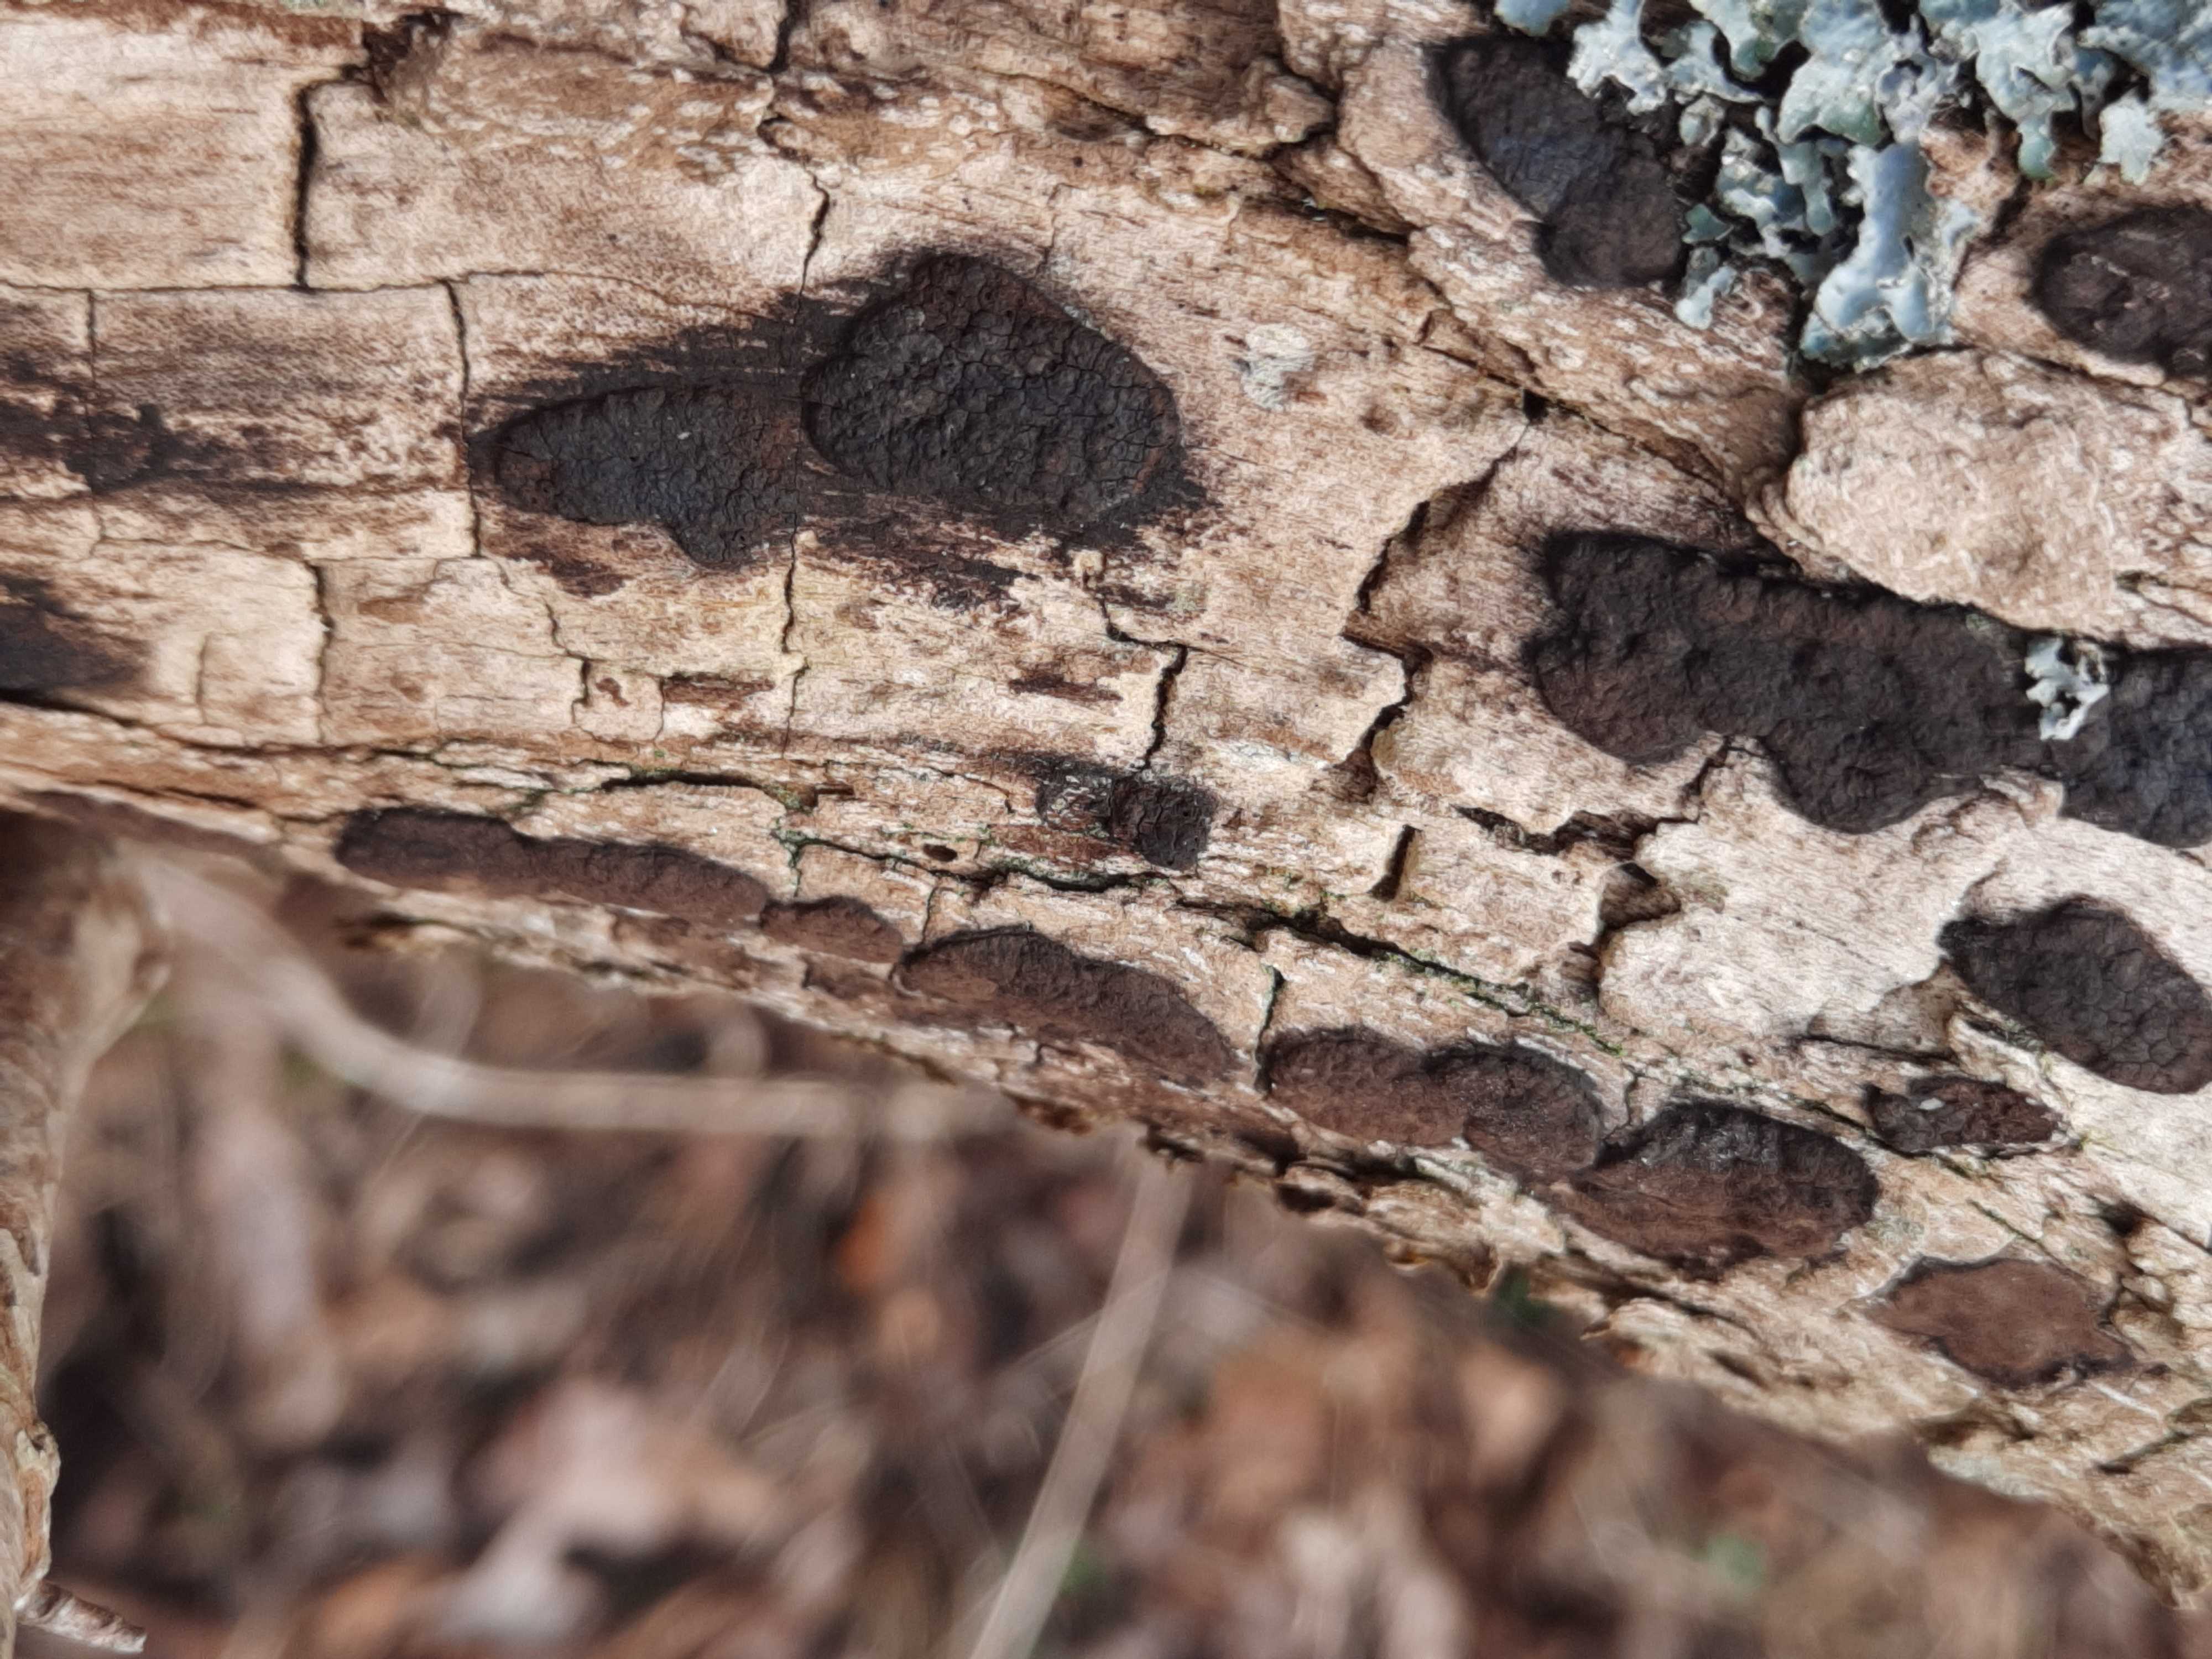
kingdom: Fungi
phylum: Ascomycota
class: Sordariomycetes
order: Xylariales
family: Hypoxylaceae
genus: Hypoxylon
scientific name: Hypoxylon
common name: kulbær
